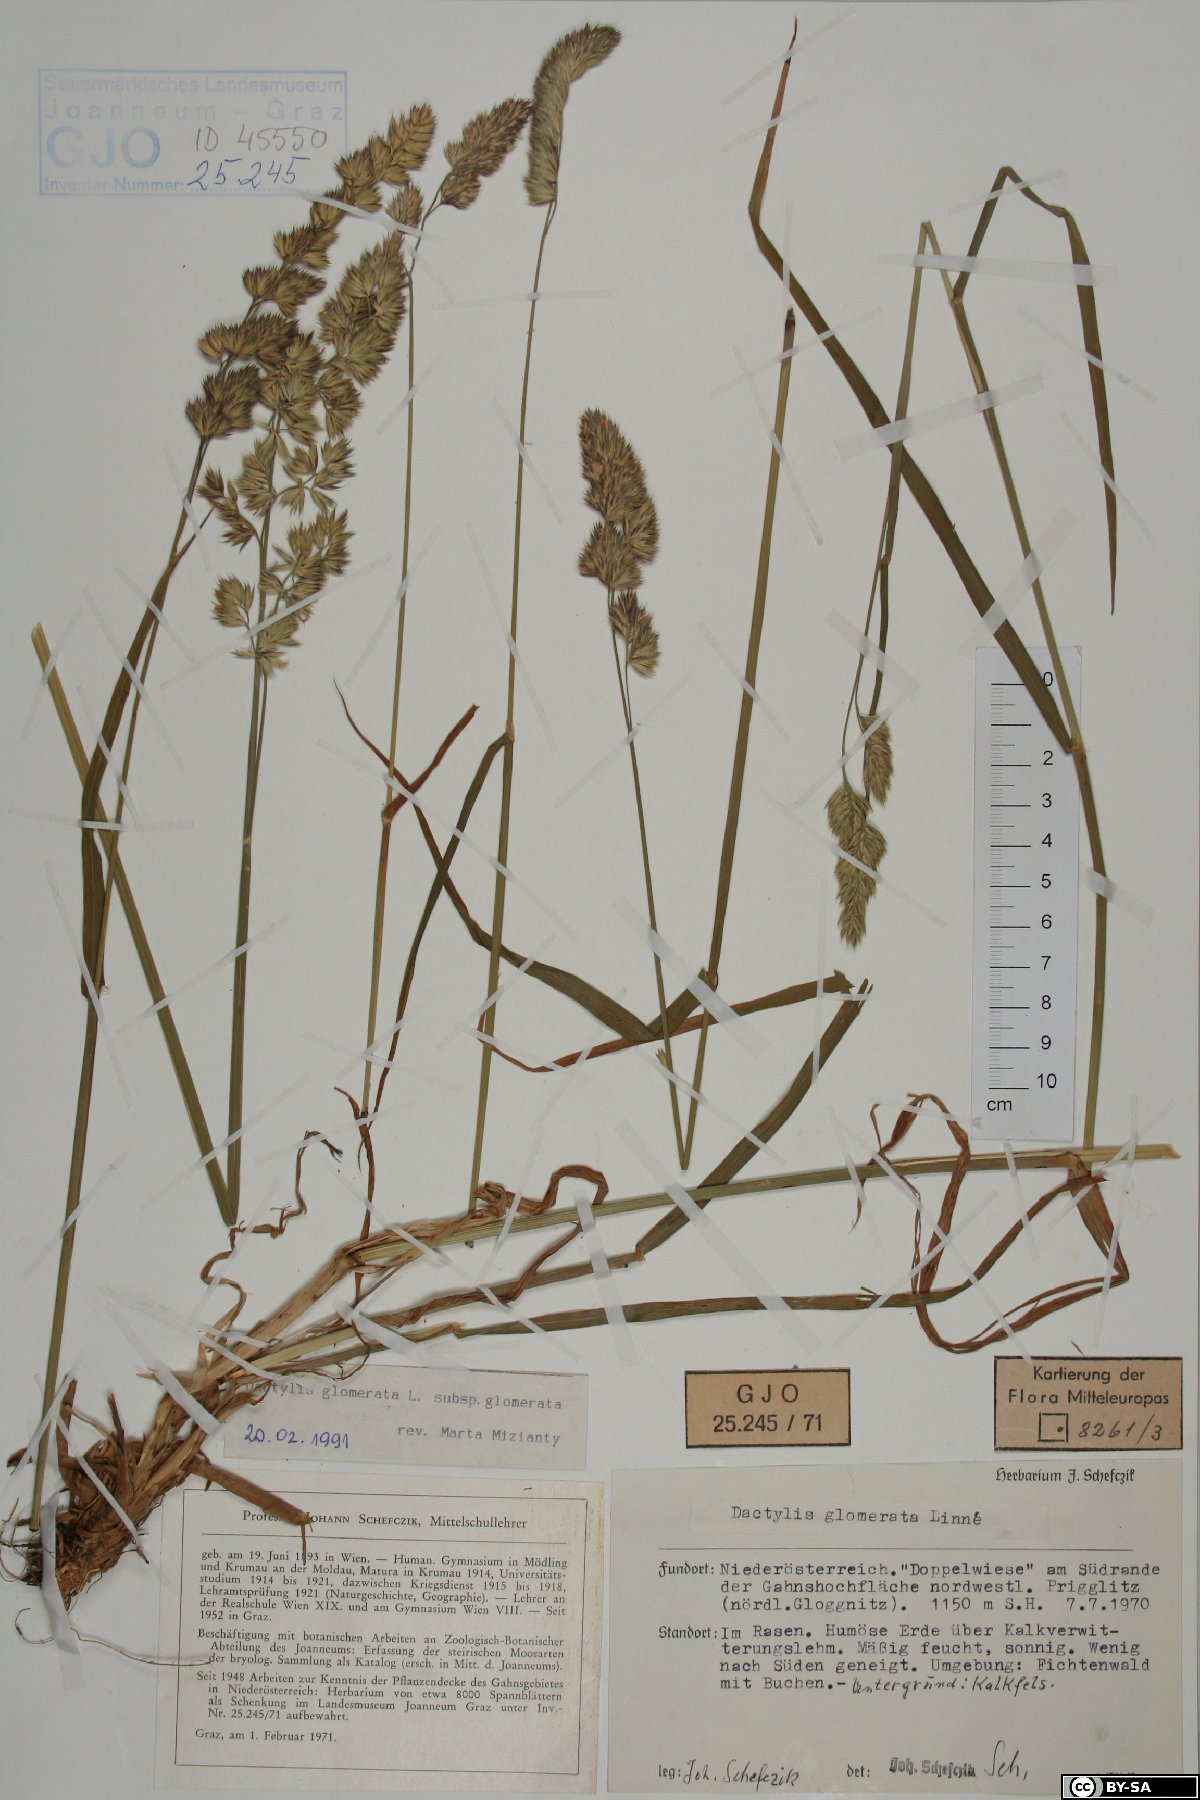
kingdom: Plantae
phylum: Tracheophyta
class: Liliopsida
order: Poales
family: Poaceae
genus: Dactylis
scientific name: Dactylis glomerata
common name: Orchardgrass
